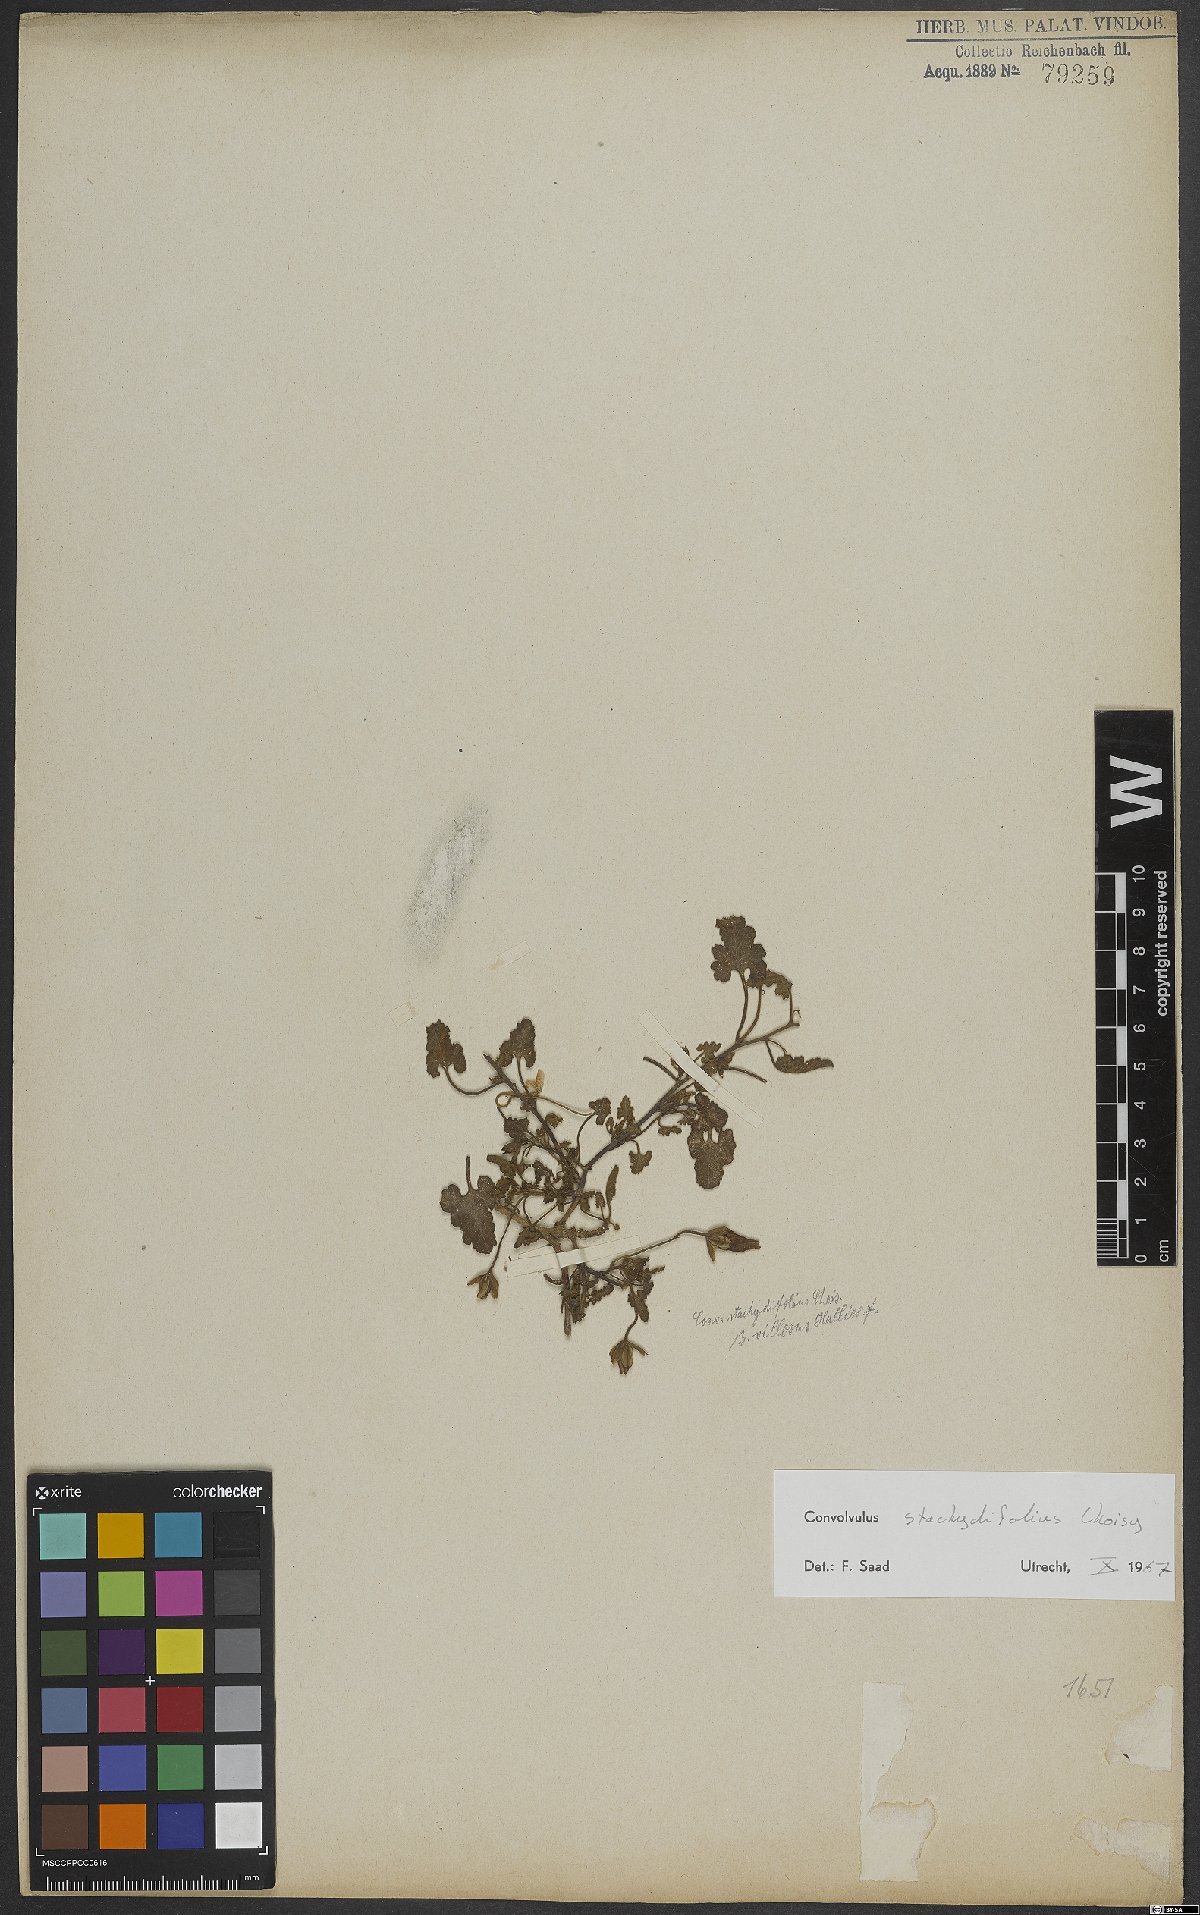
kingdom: Plantae
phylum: Tracheophyta
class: Magnoliopsida
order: Solanales
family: Convolvulaceae
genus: Convolvulus
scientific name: Convolvulus stachydifolius
